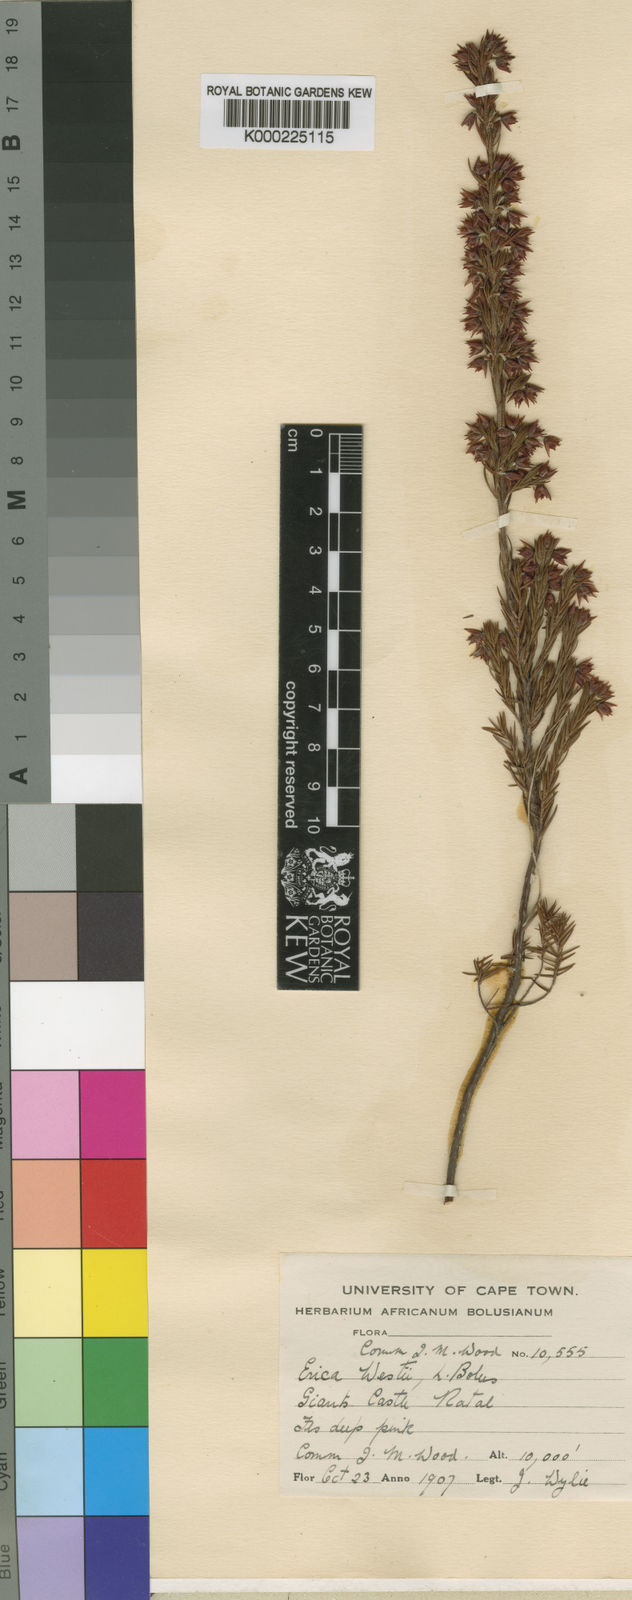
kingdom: Plantae
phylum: Tracheophyta
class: Magnoliopsida
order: Ericales
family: Ericaceae
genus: Erica
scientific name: Erica straussiana
